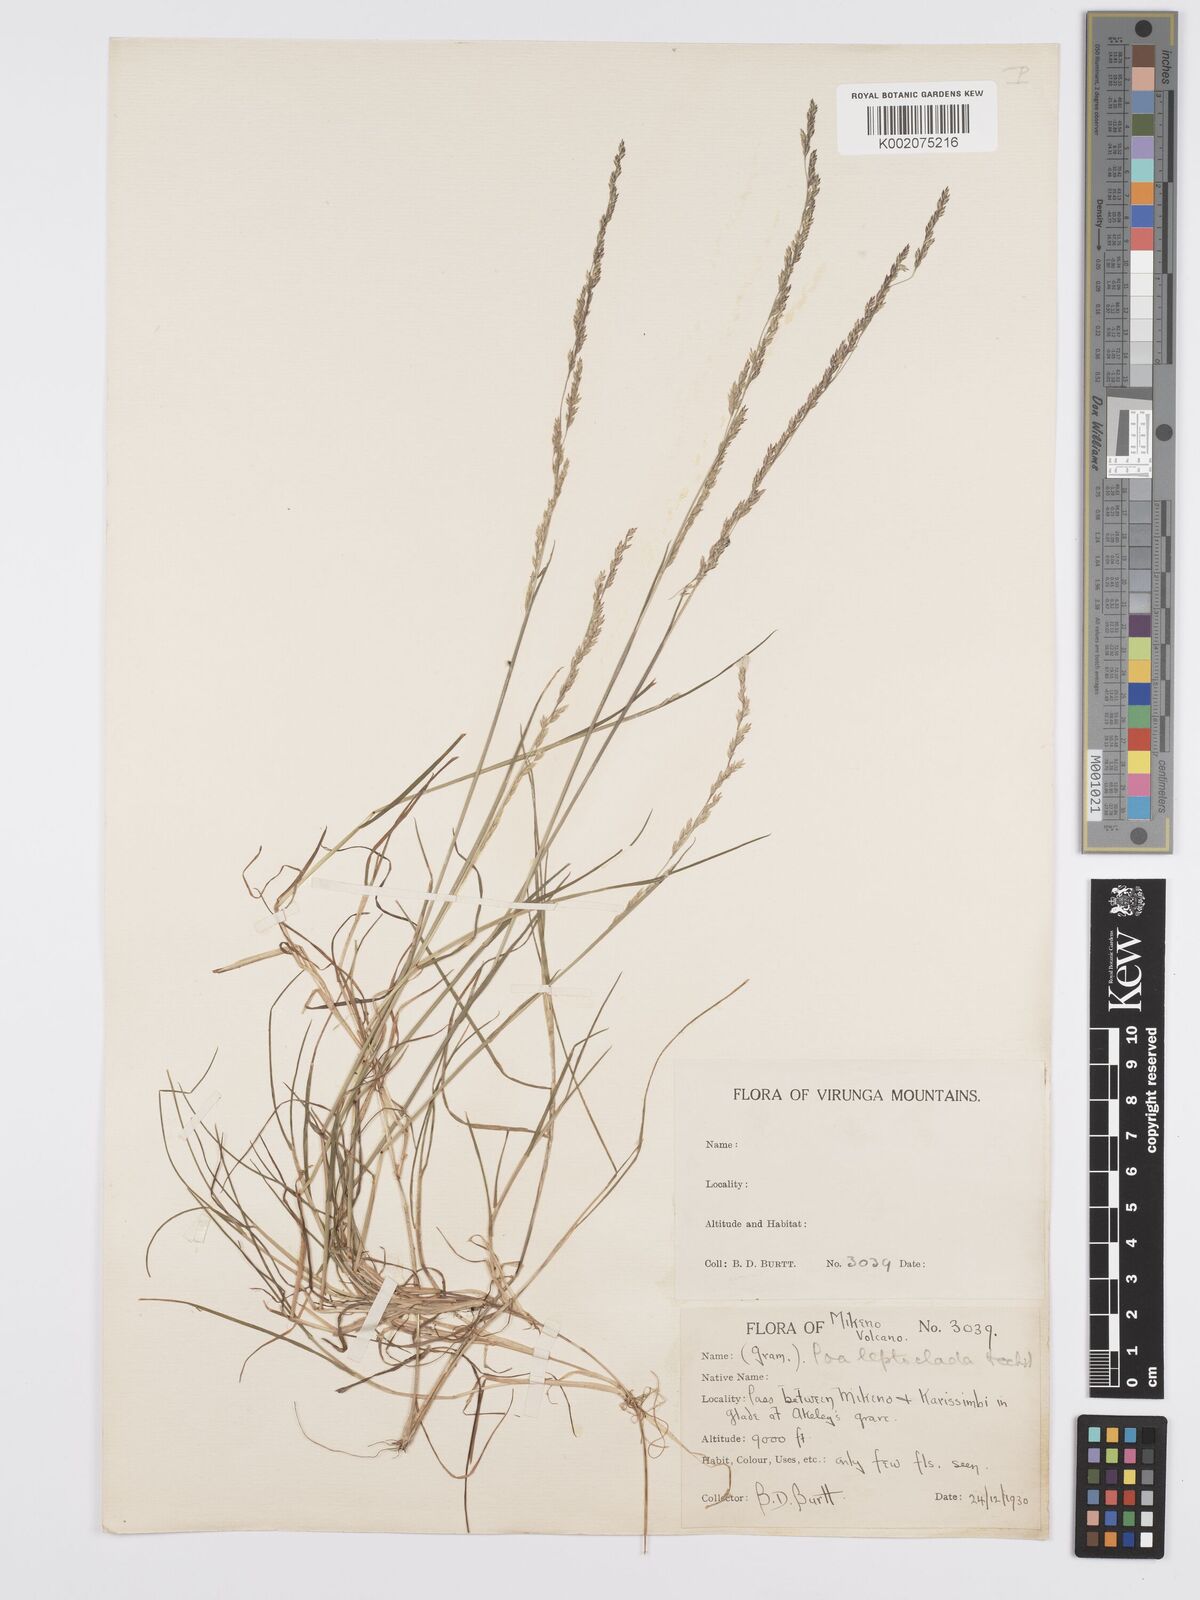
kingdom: Plantae
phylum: Tracheophyta
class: Liliopsida
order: Poales
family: Poaceae
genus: Poa
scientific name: Poa leptoclada
